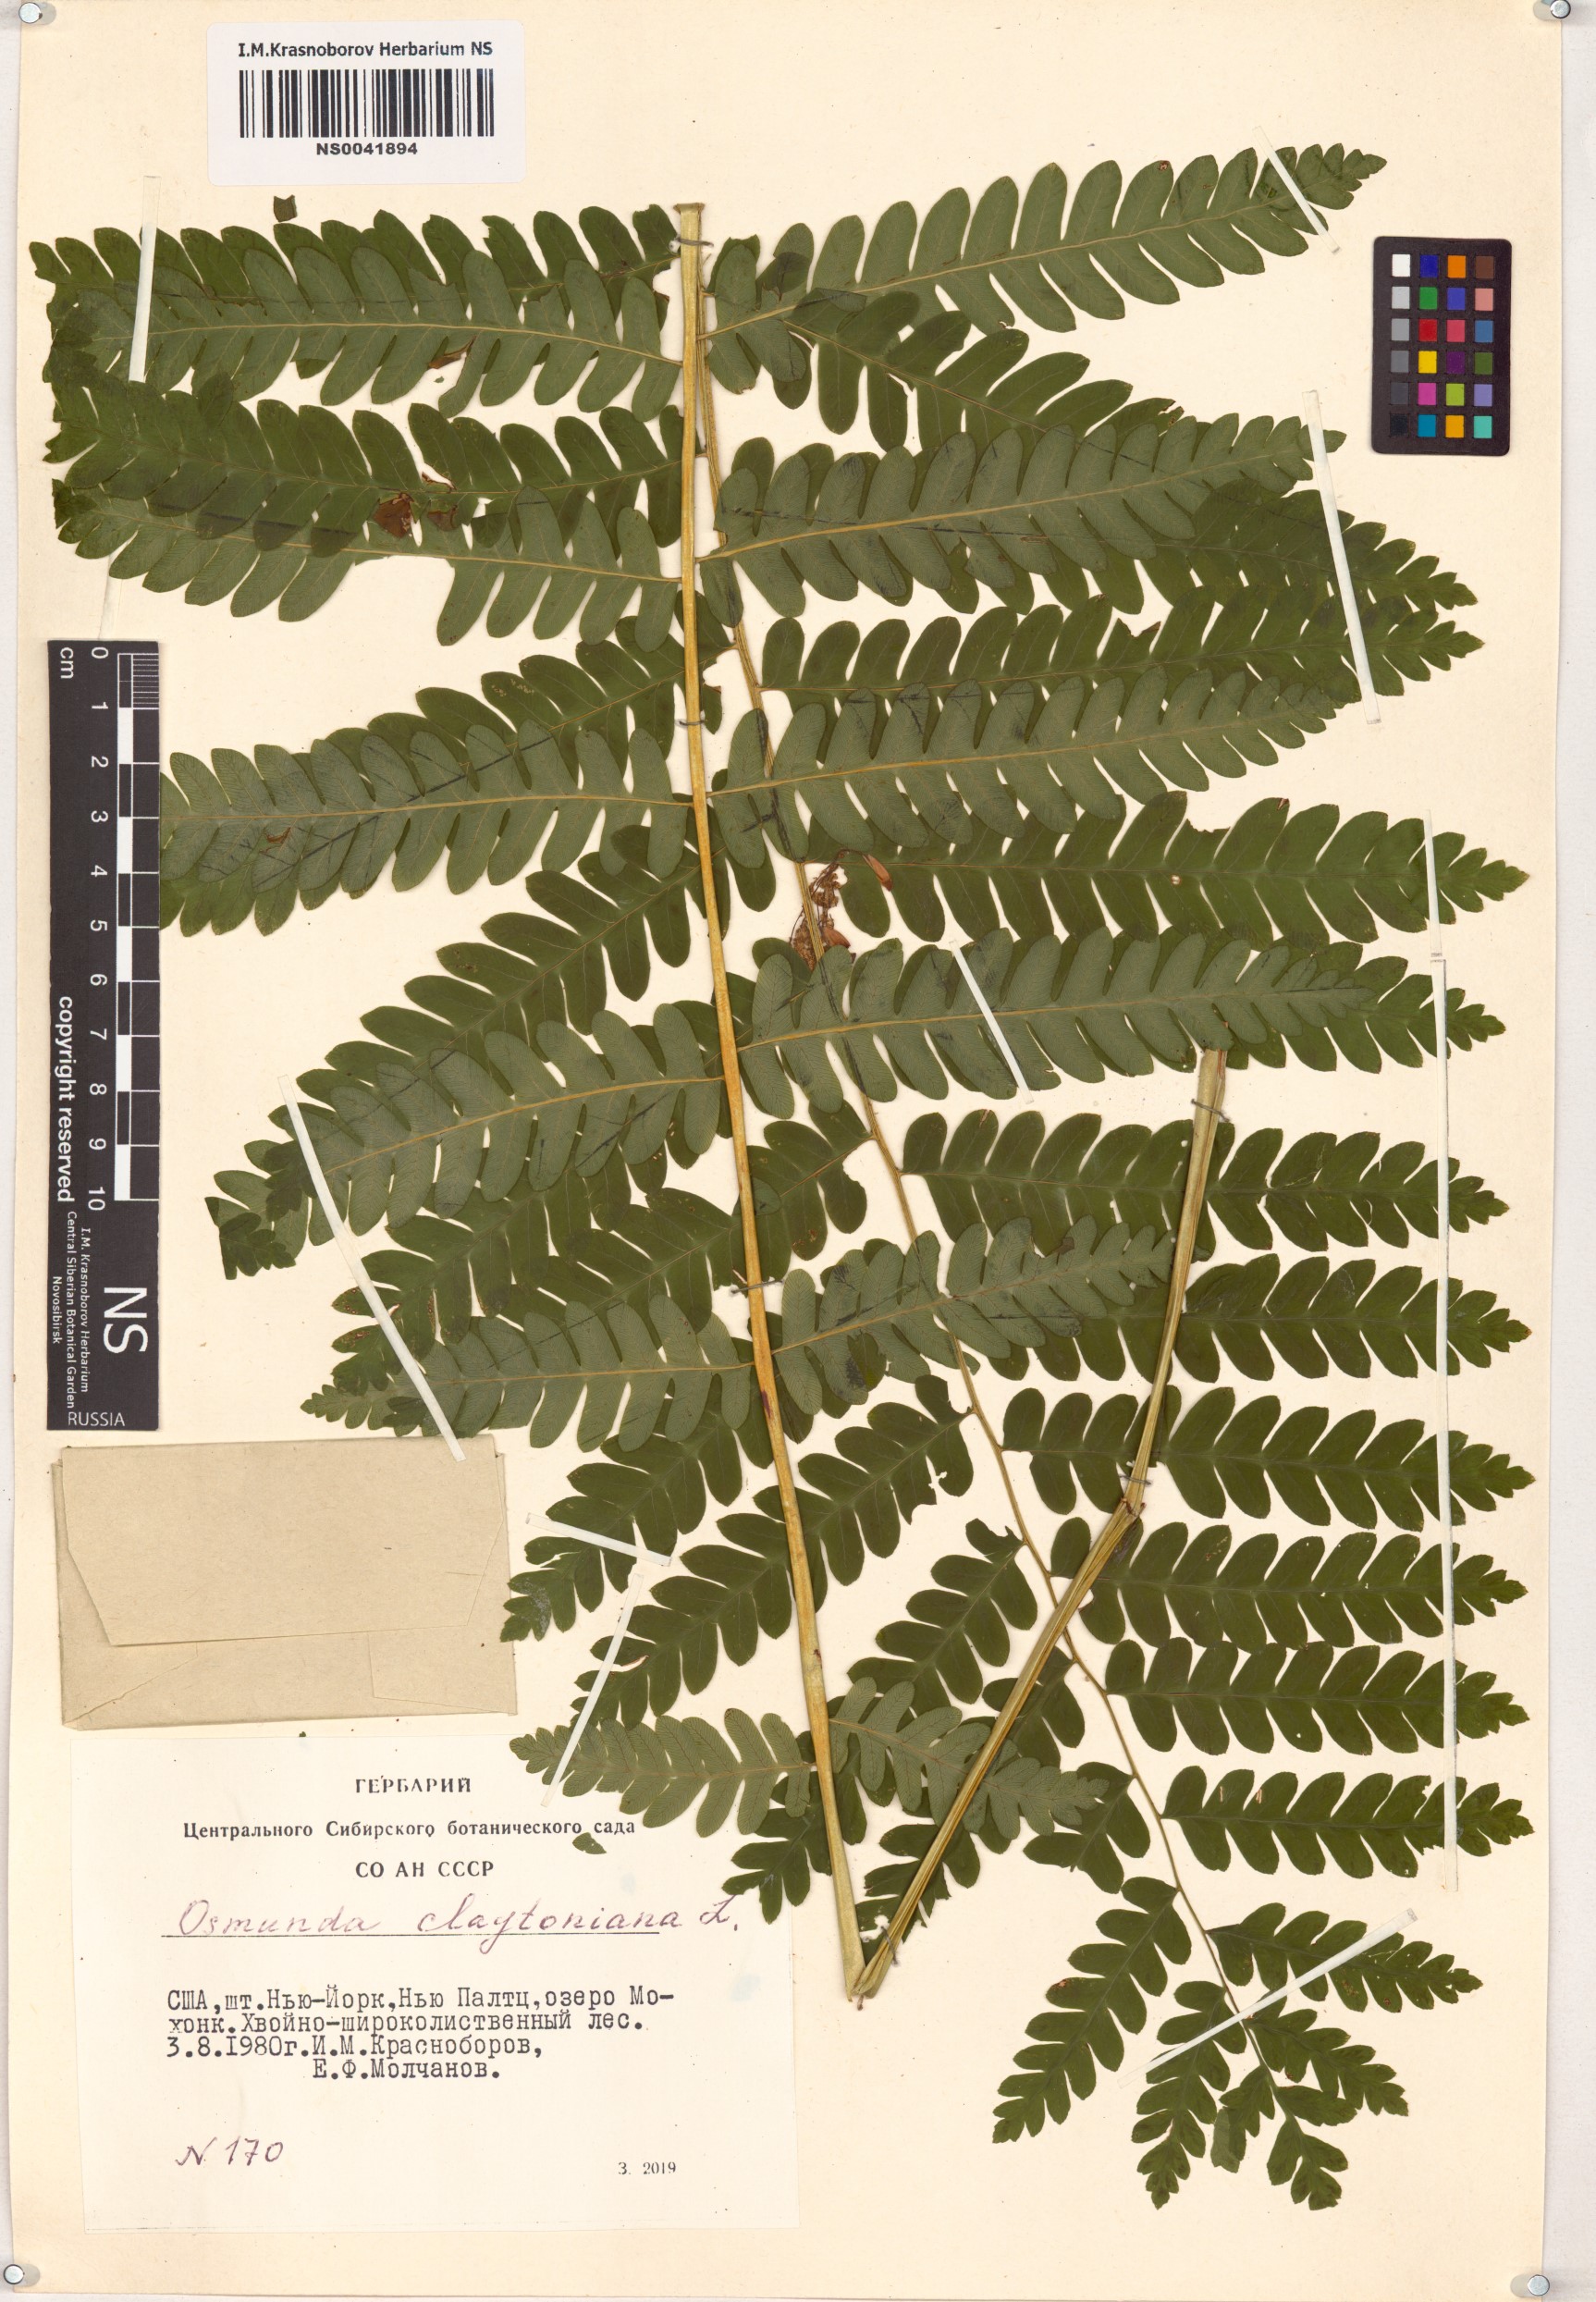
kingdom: Plantae
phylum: Tracheophyta
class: Polypodiopsida
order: Osmundales
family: Osmundaceae
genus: Claytosmunda
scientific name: Claytosmunda claytoniana
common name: Clayton's fern
